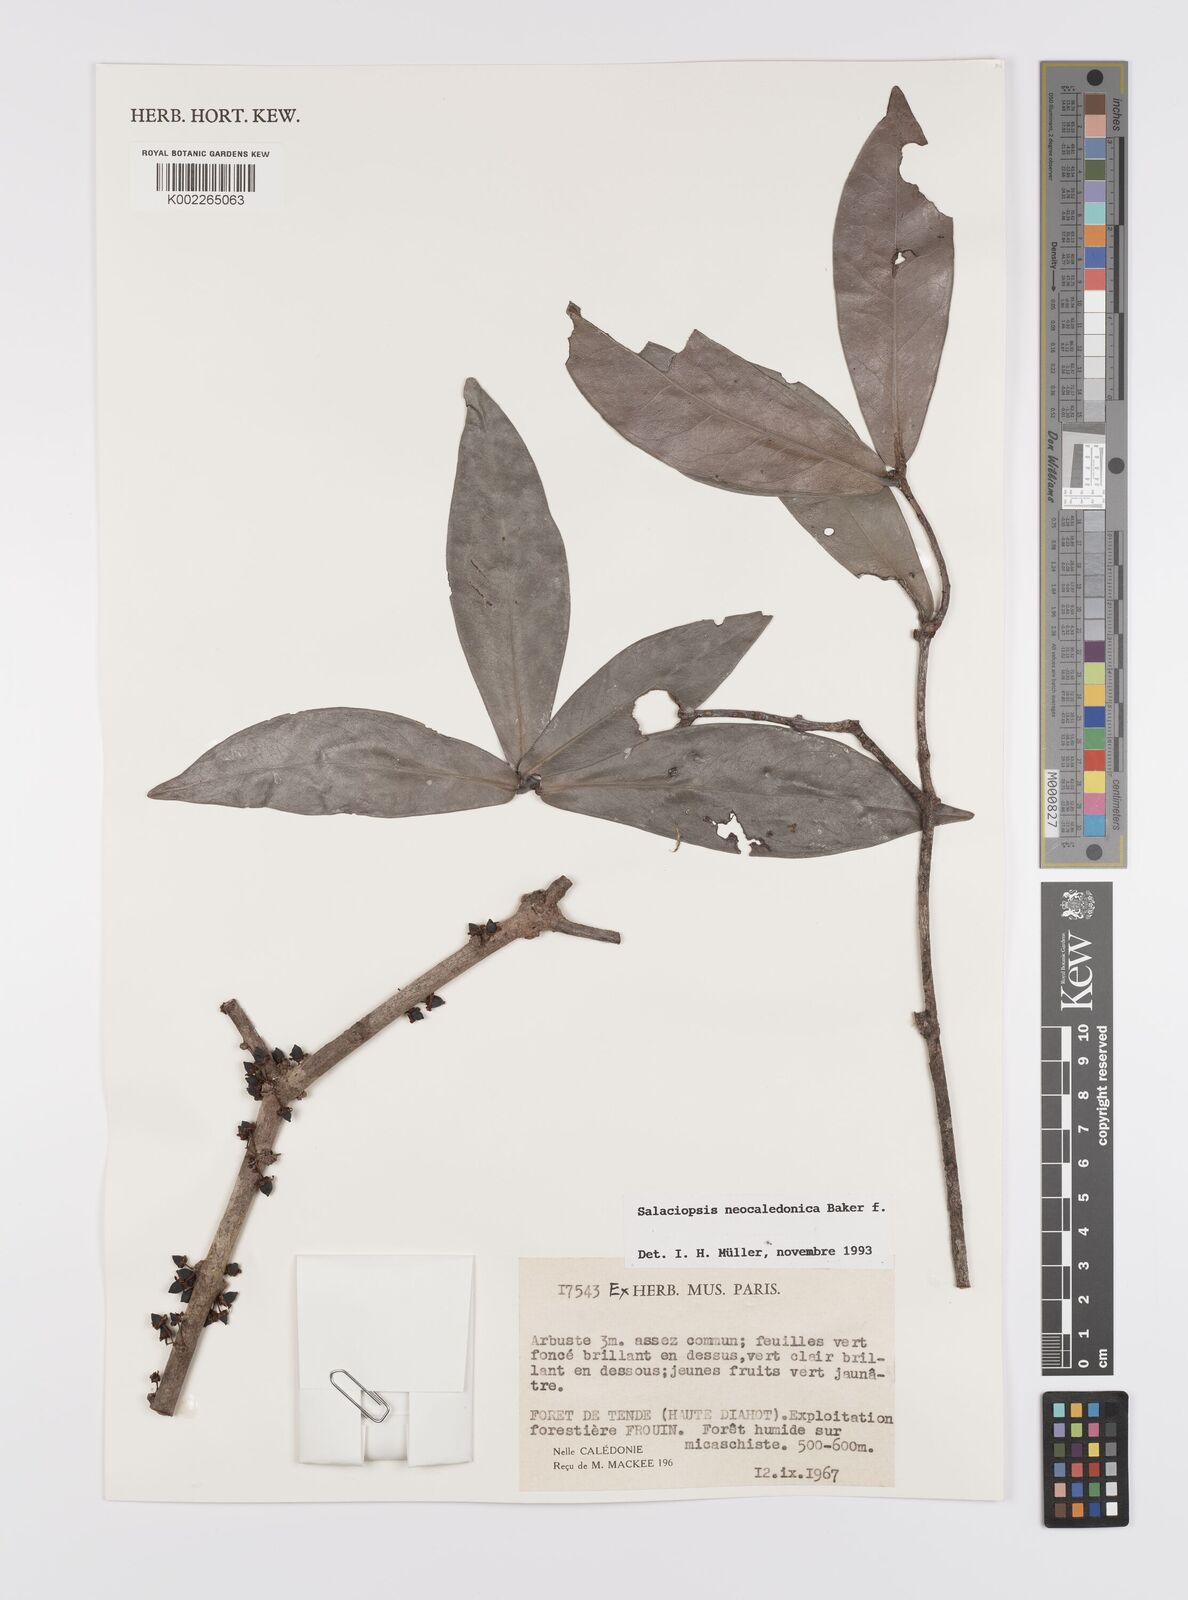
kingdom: Plantae
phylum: Tracheophyta
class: Magnoliopsida
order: Celastrales
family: Celastraceae
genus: Salaciopsis
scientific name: Salaciopsis neocaledonica
